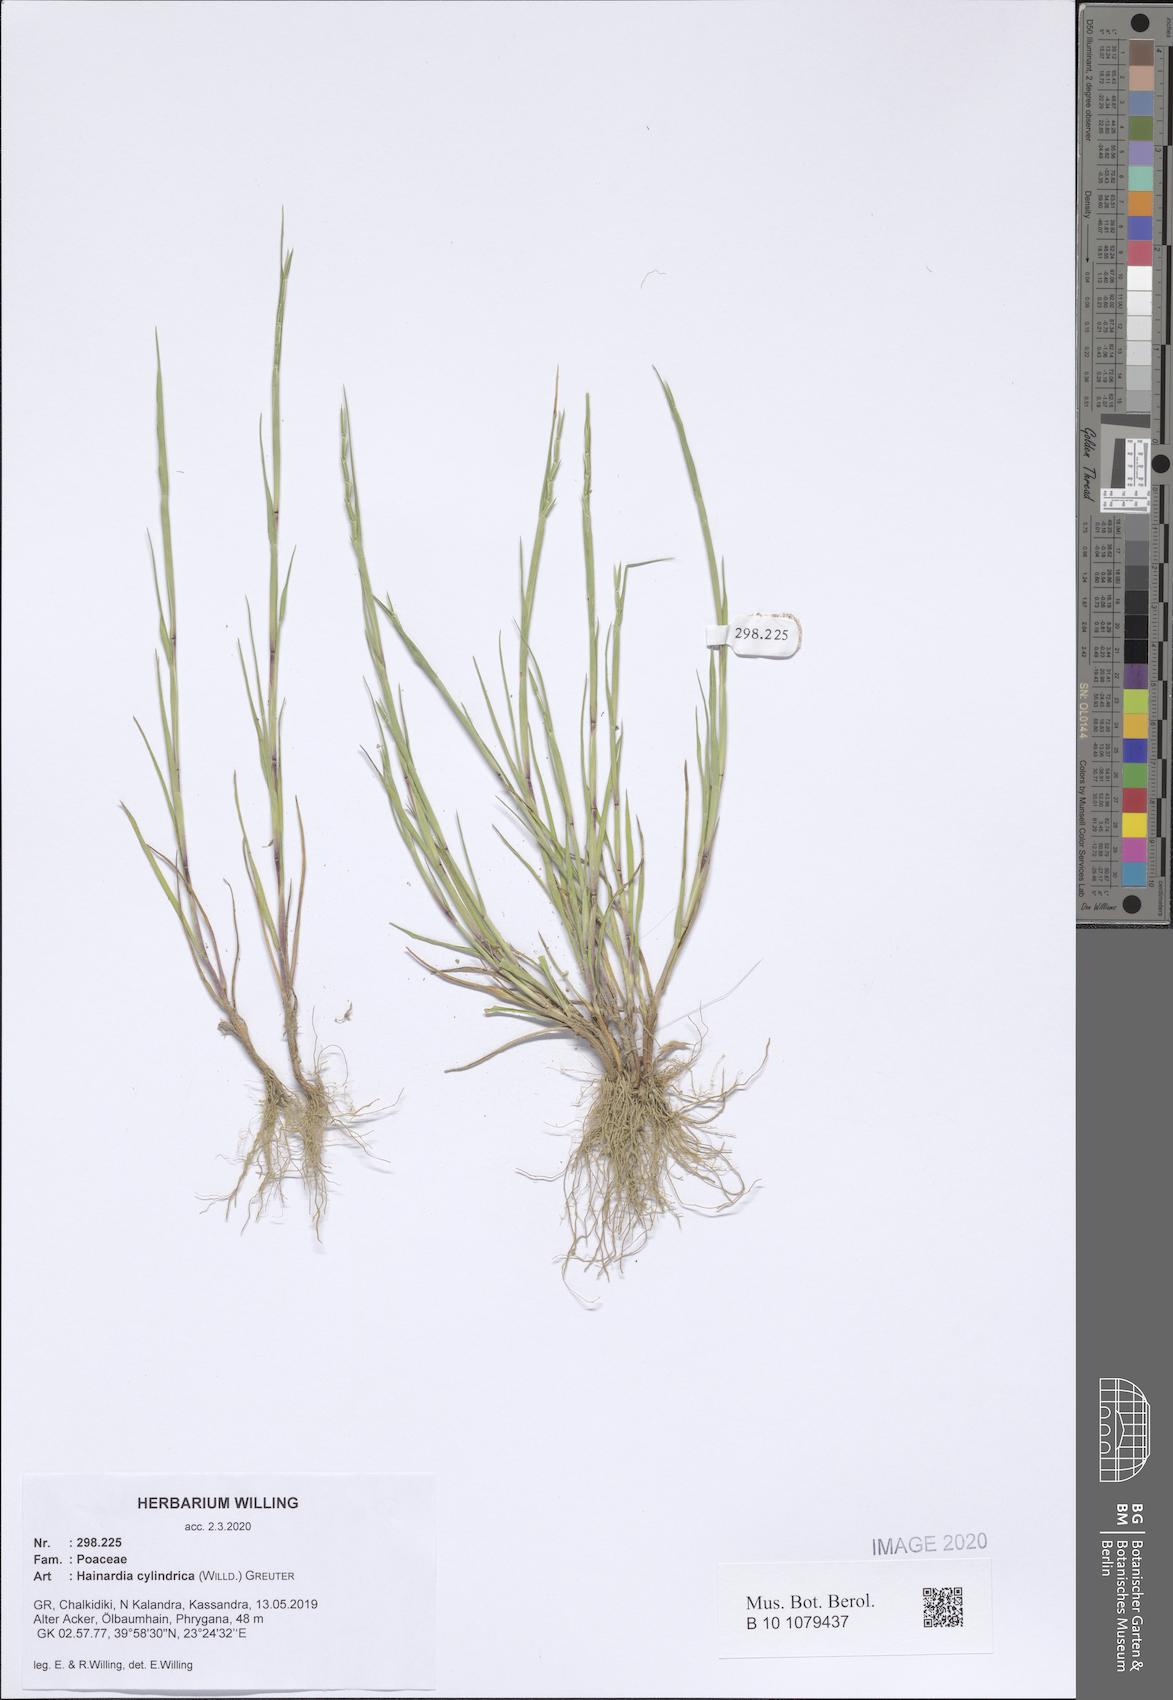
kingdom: Plantae
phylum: Tracheophyta
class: Liliopsida
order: Poales
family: Poaceae
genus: Parapholis
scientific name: Parapholis cylindrica
